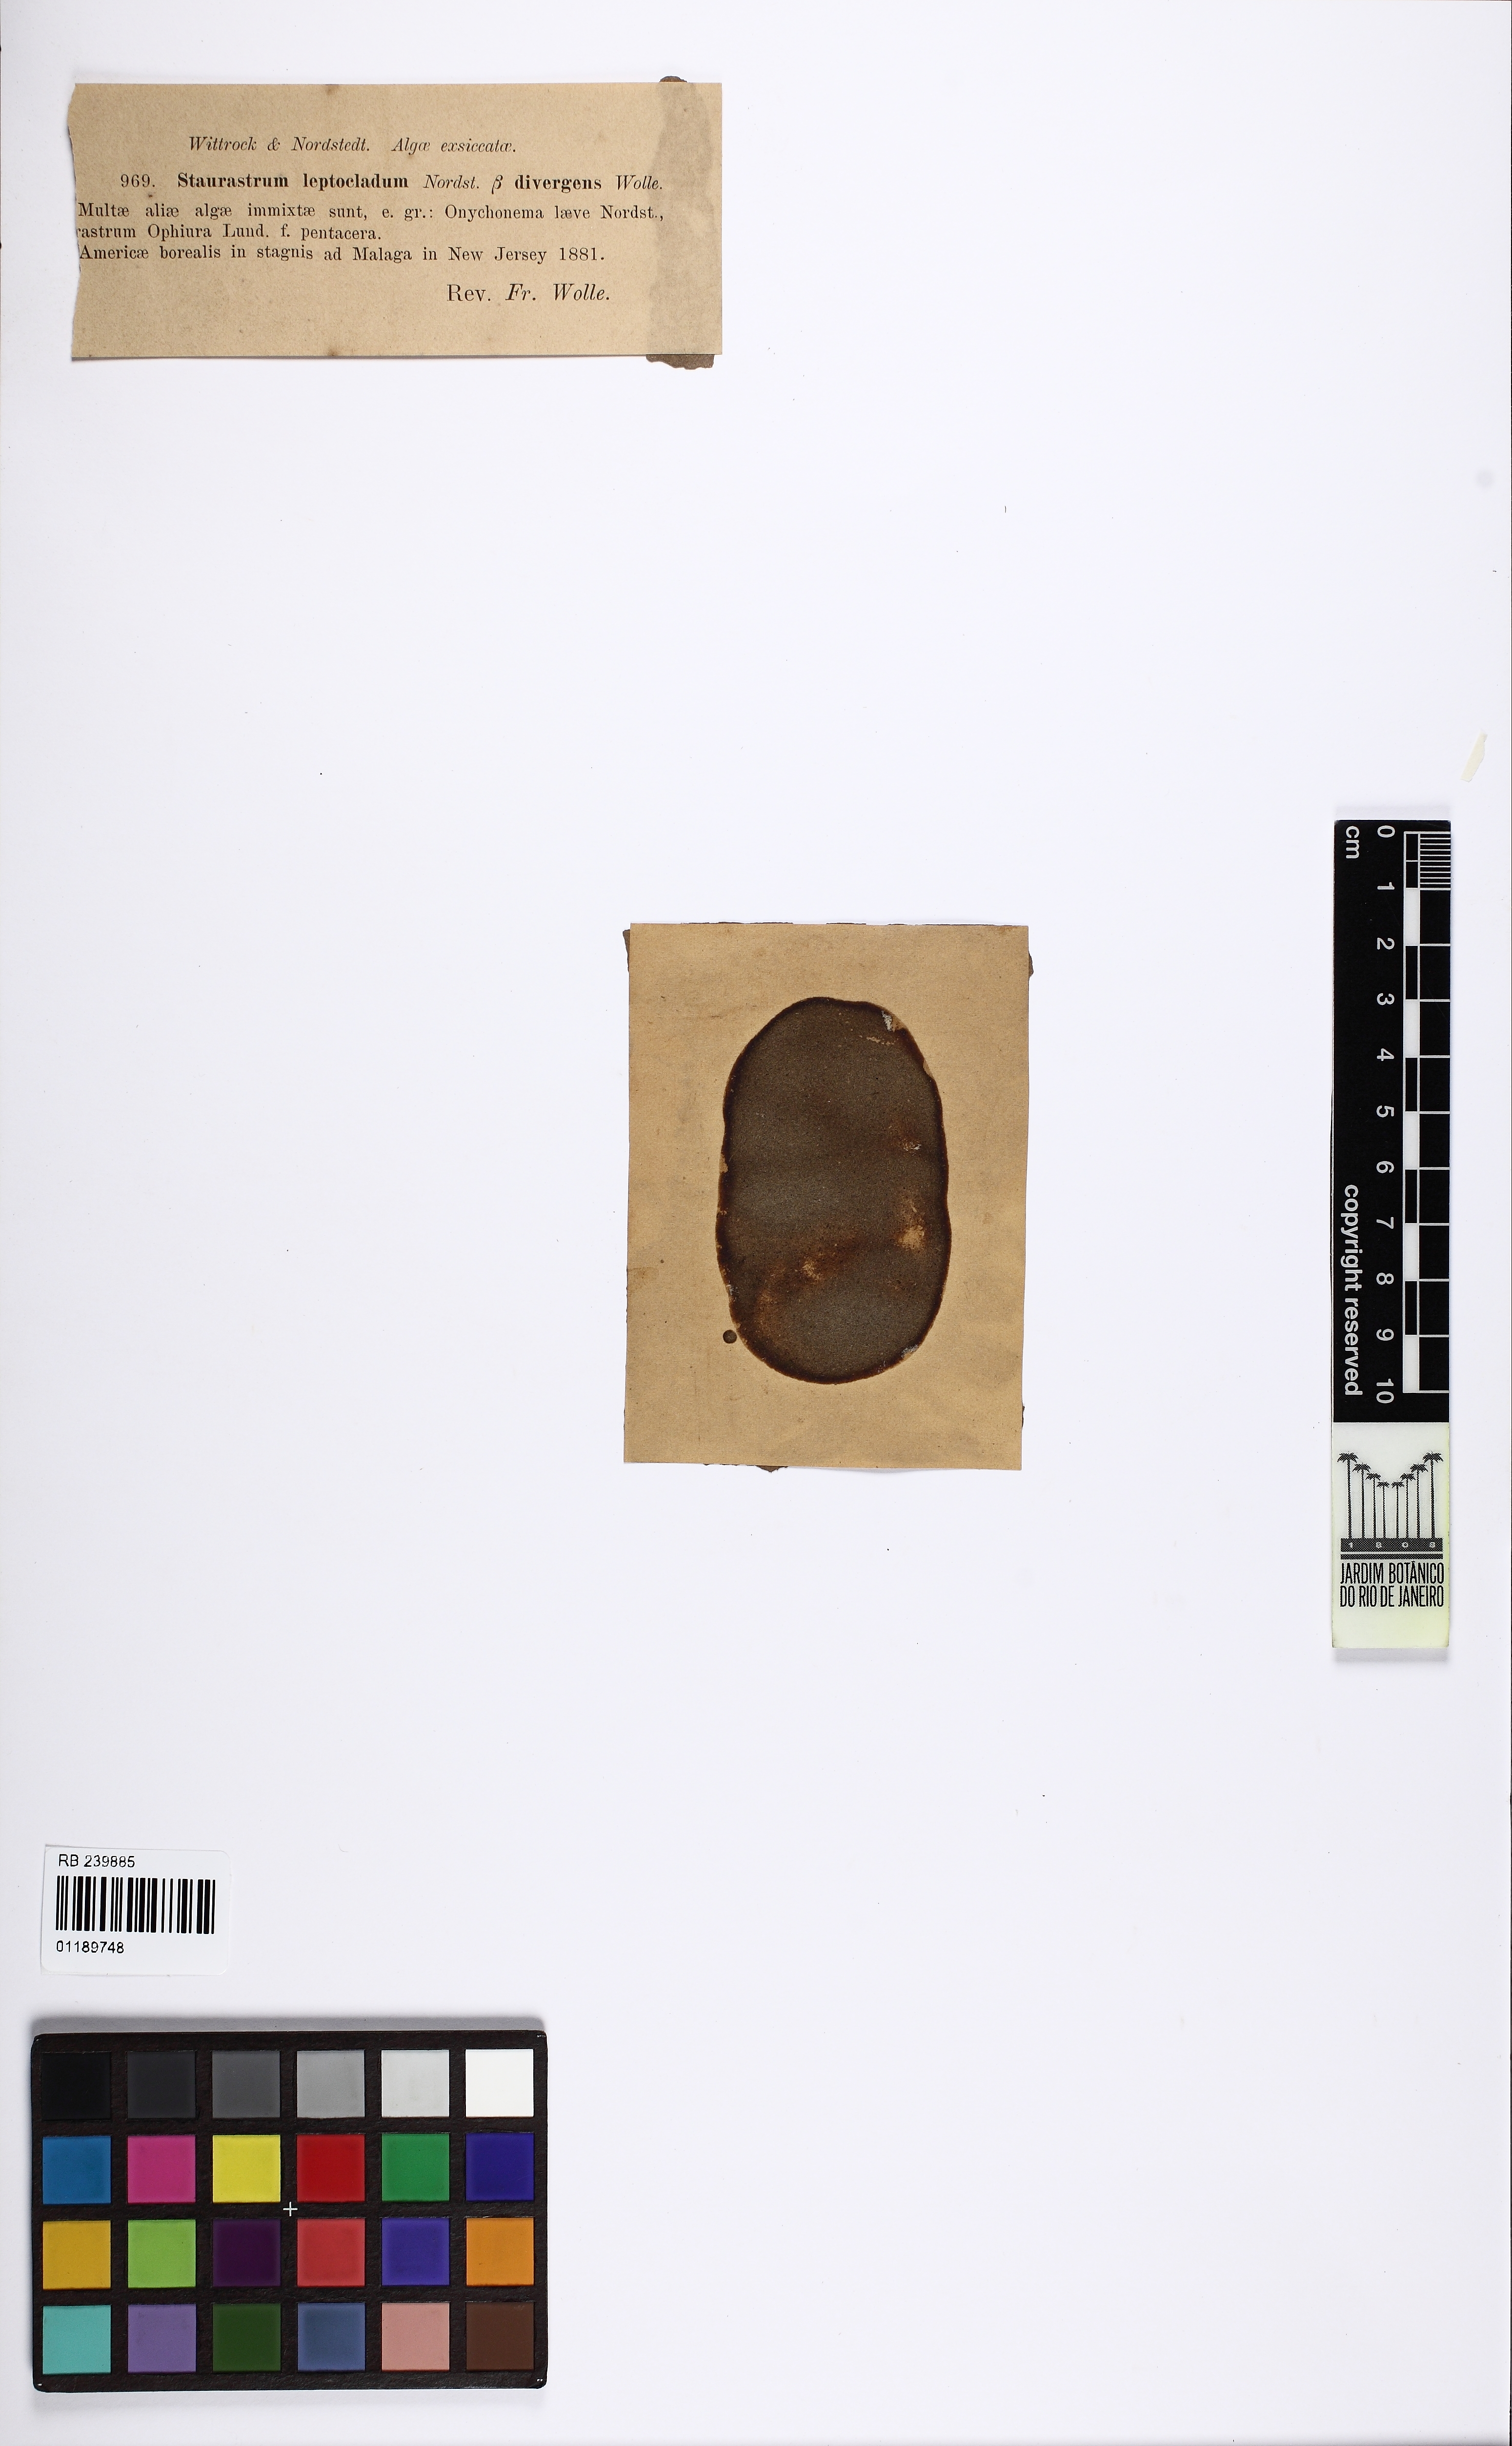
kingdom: Plantae
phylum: Charophyta
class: Conjugatophyceae
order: Desmidiales
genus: Staurastrum
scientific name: Staurastrum leptocladum
